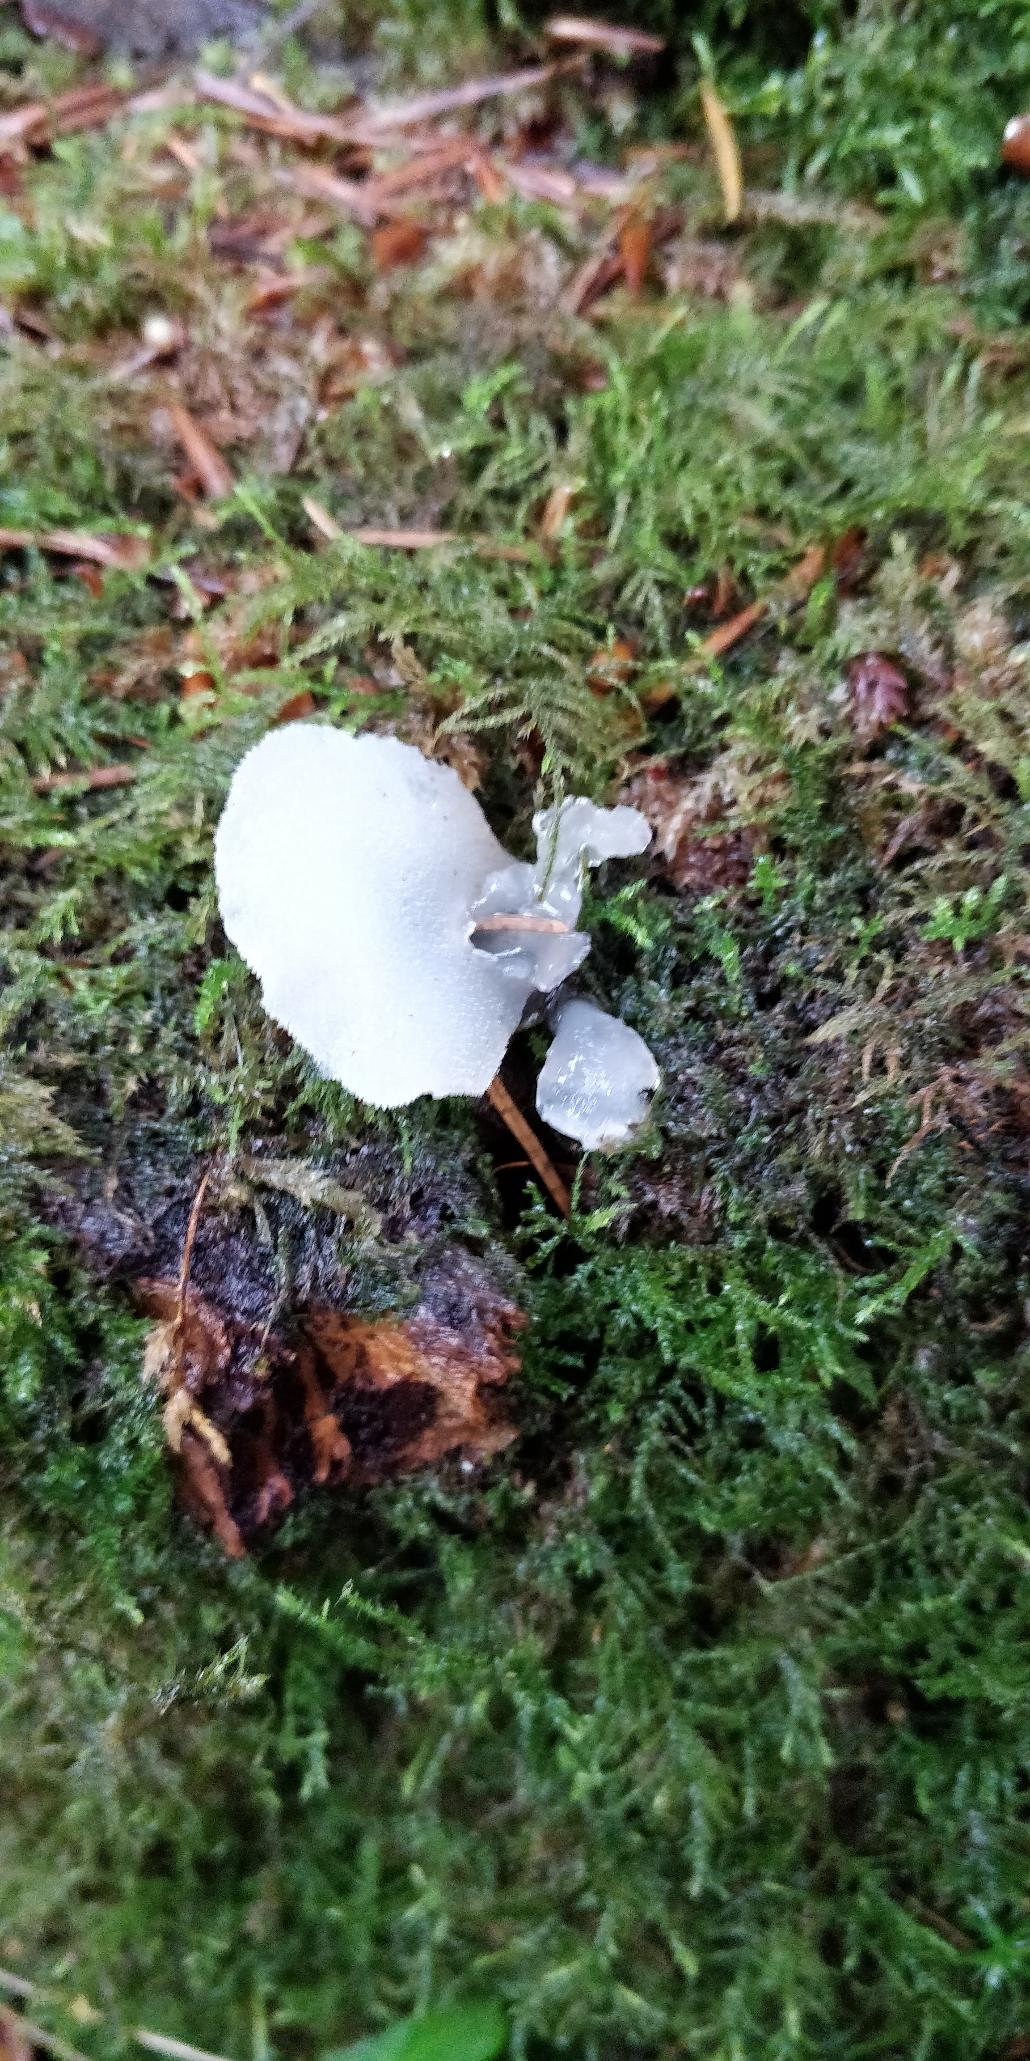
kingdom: Fungi
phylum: Basidiomycota
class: Agaricomycetes
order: Auriculariales
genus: Pseudohydnum
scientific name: Pseudohydnum gelatinosum
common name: Bævretand
